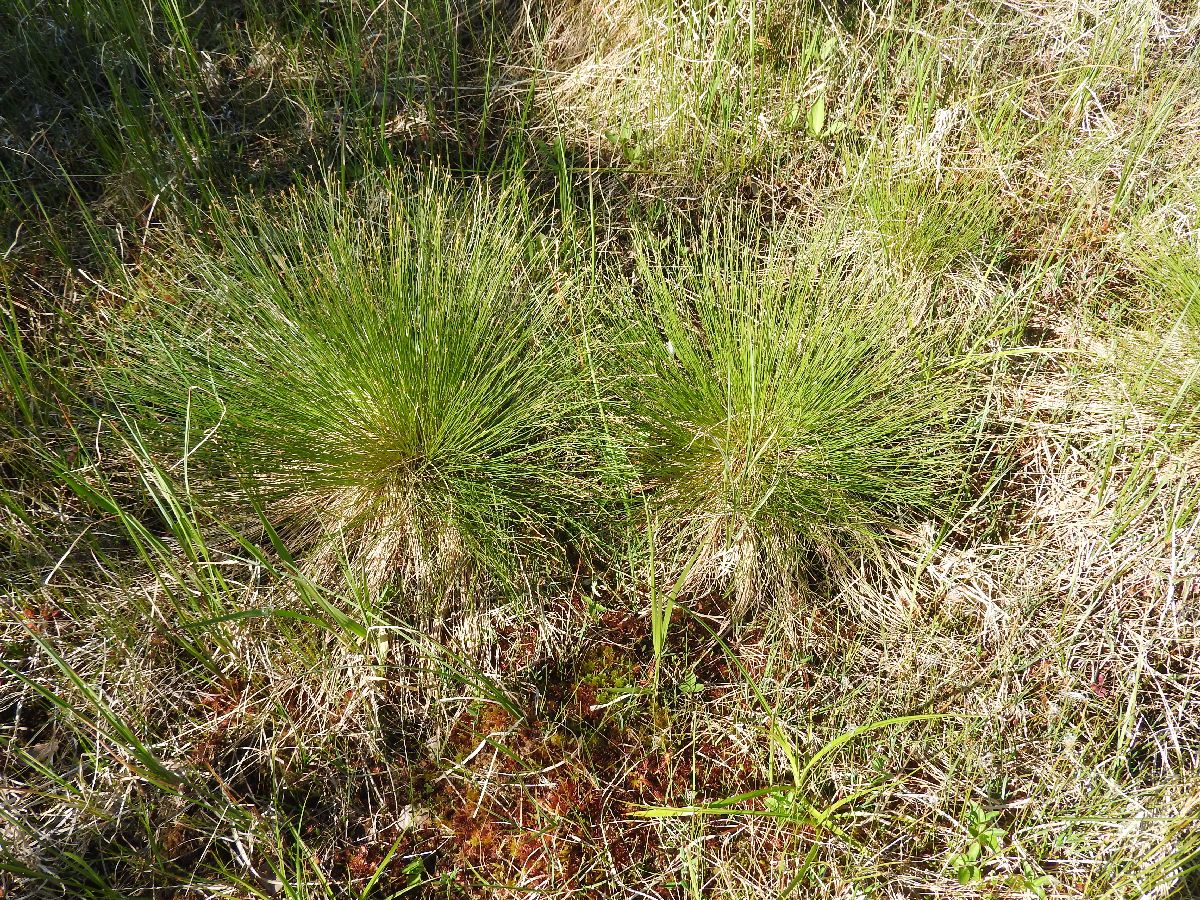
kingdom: Plantae
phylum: Tracheophyta
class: Liliopsida
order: Poales
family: Cyperaceae
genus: Trichophorum
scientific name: Trichophorum cespitosum
